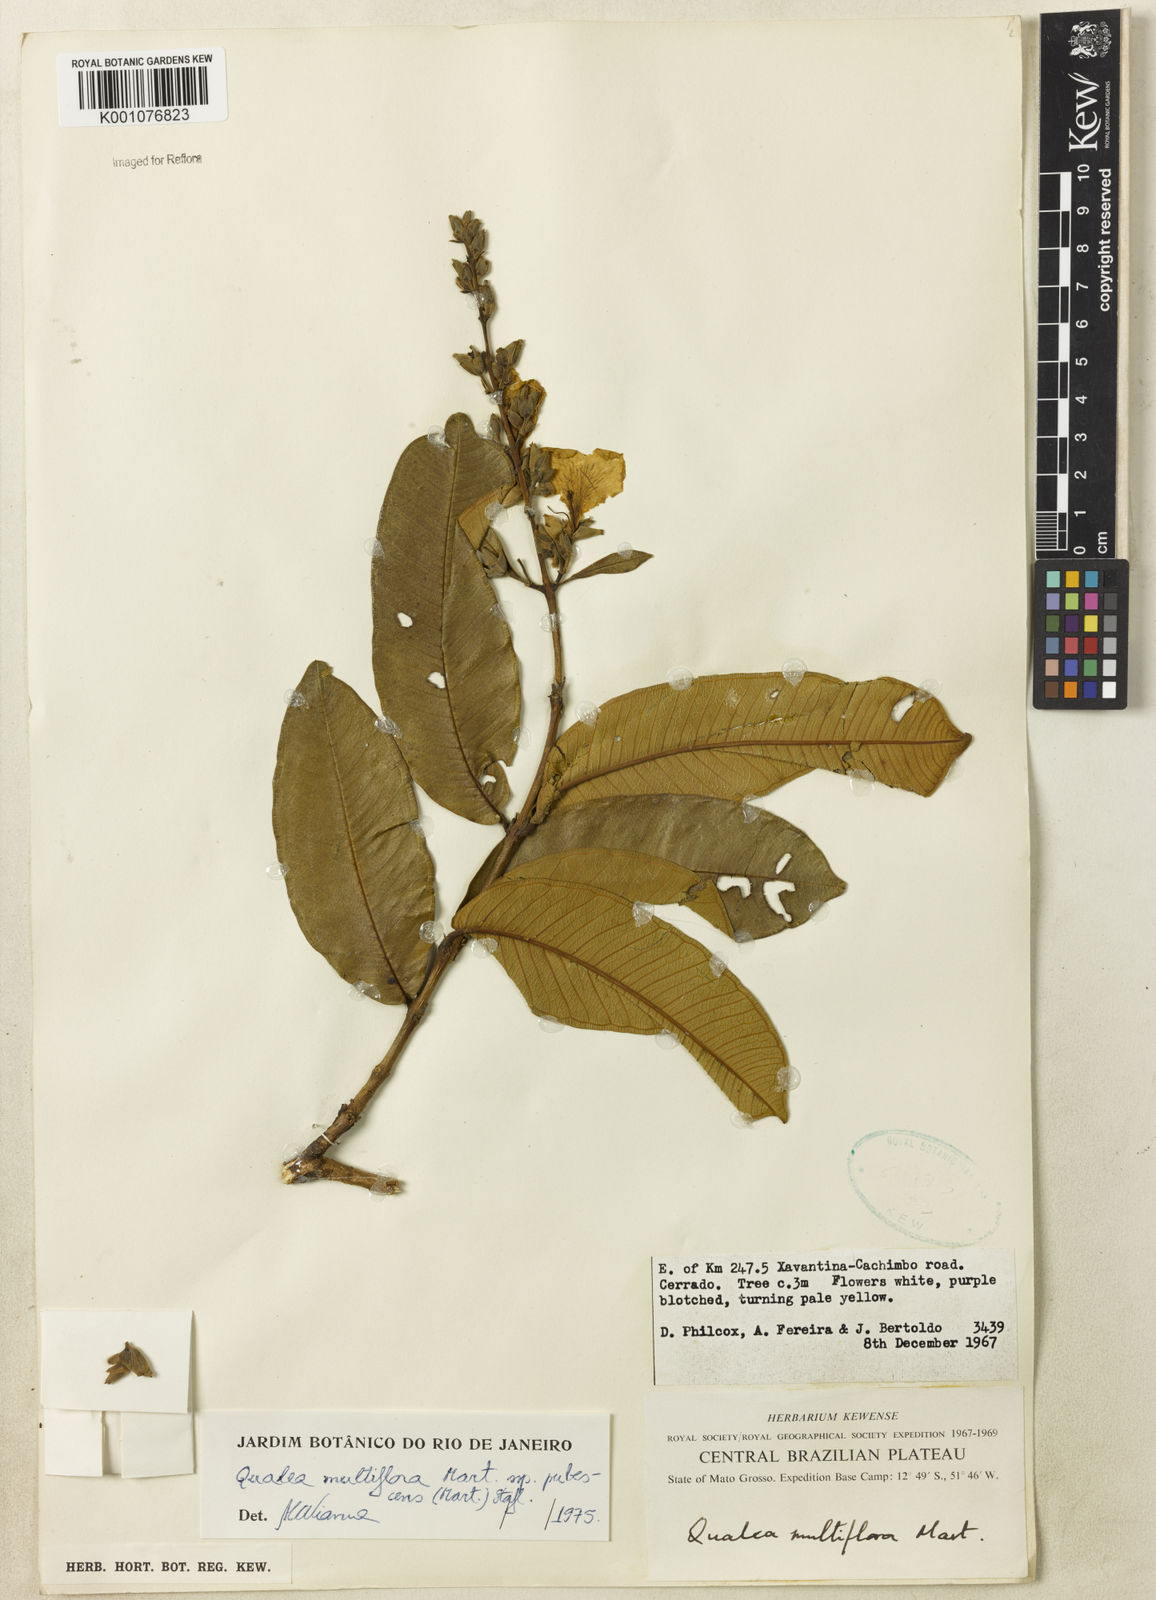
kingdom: Plantae
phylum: Tracheophyta
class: Magnoliopsida
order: Myrtales
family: Vochysiaceae
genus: Qualea
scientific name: Qualea multiflora
